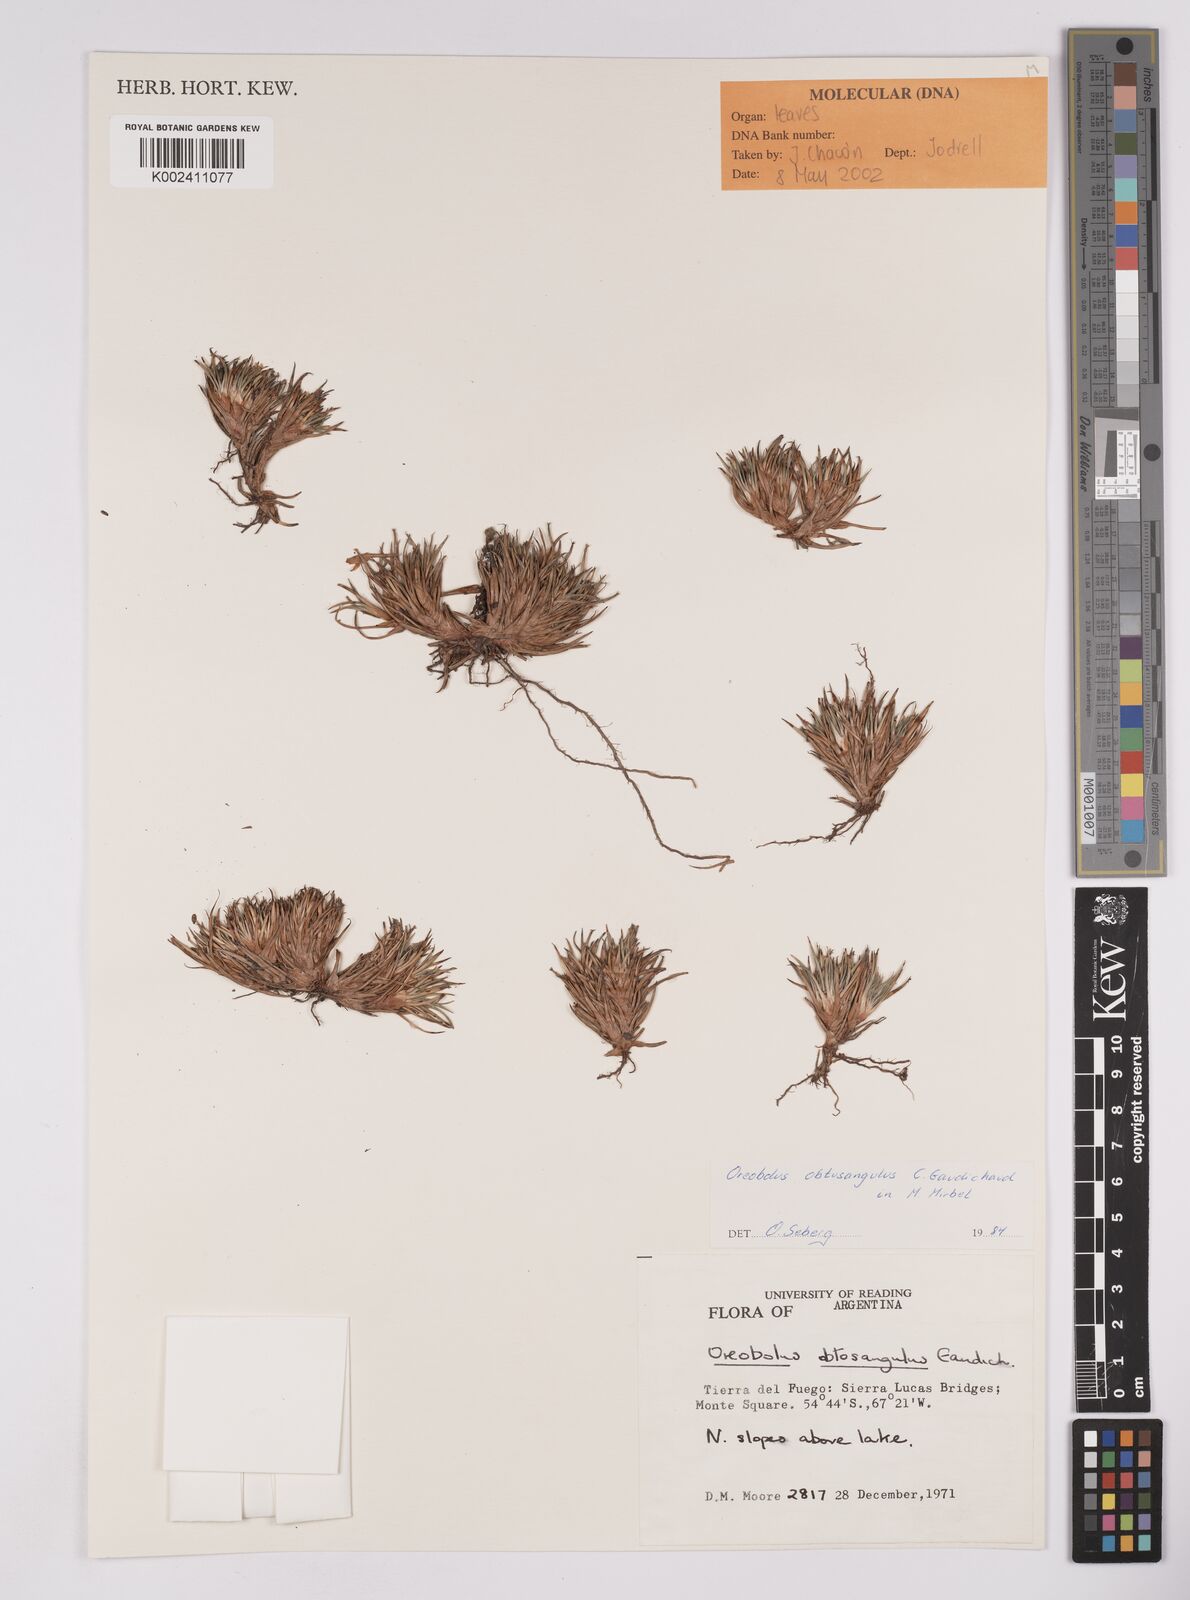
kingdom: Plantae
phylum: Tracheophyta
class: Liliopsida
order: Poales
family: Cyperaceae
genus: Oreobolus
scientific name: Oreobolus obtusangulus
